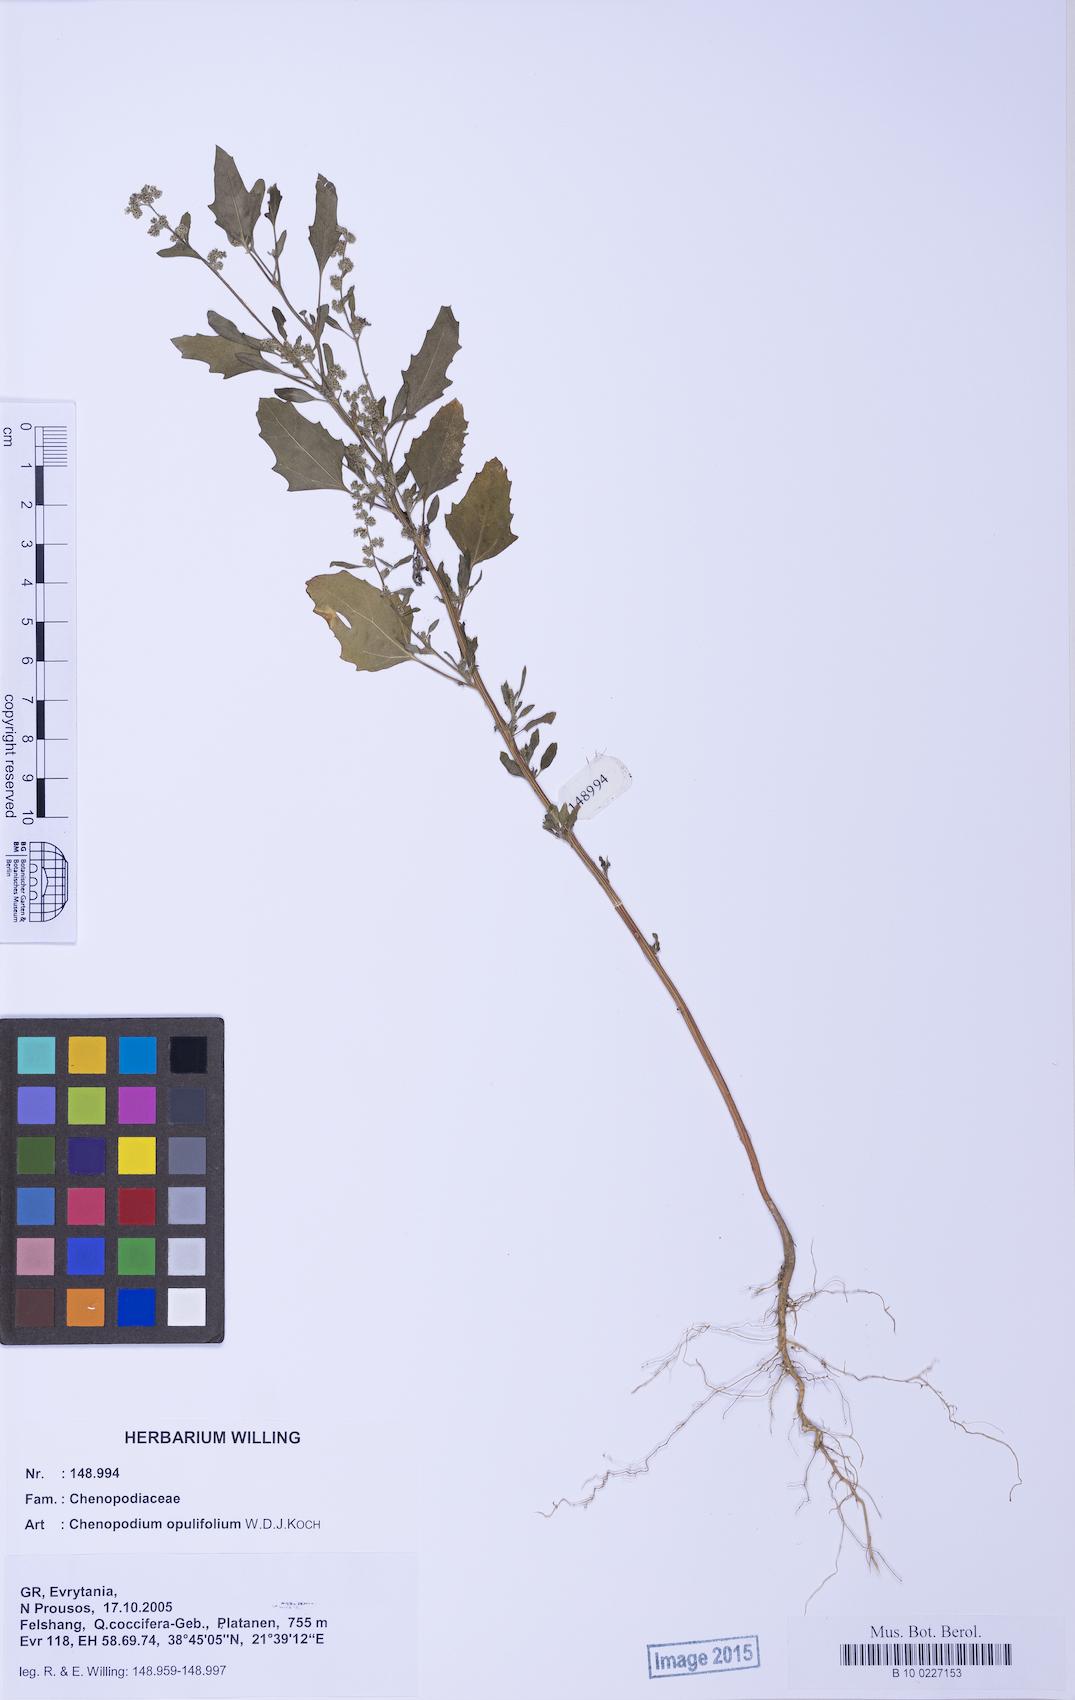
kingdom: Plantae
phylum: Tracheophyta
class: Magnoliopsida
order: Caryophyllales
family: Amaranthaceae
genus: Chenopodium
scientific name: Chenopodium album
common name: Fat-hen
